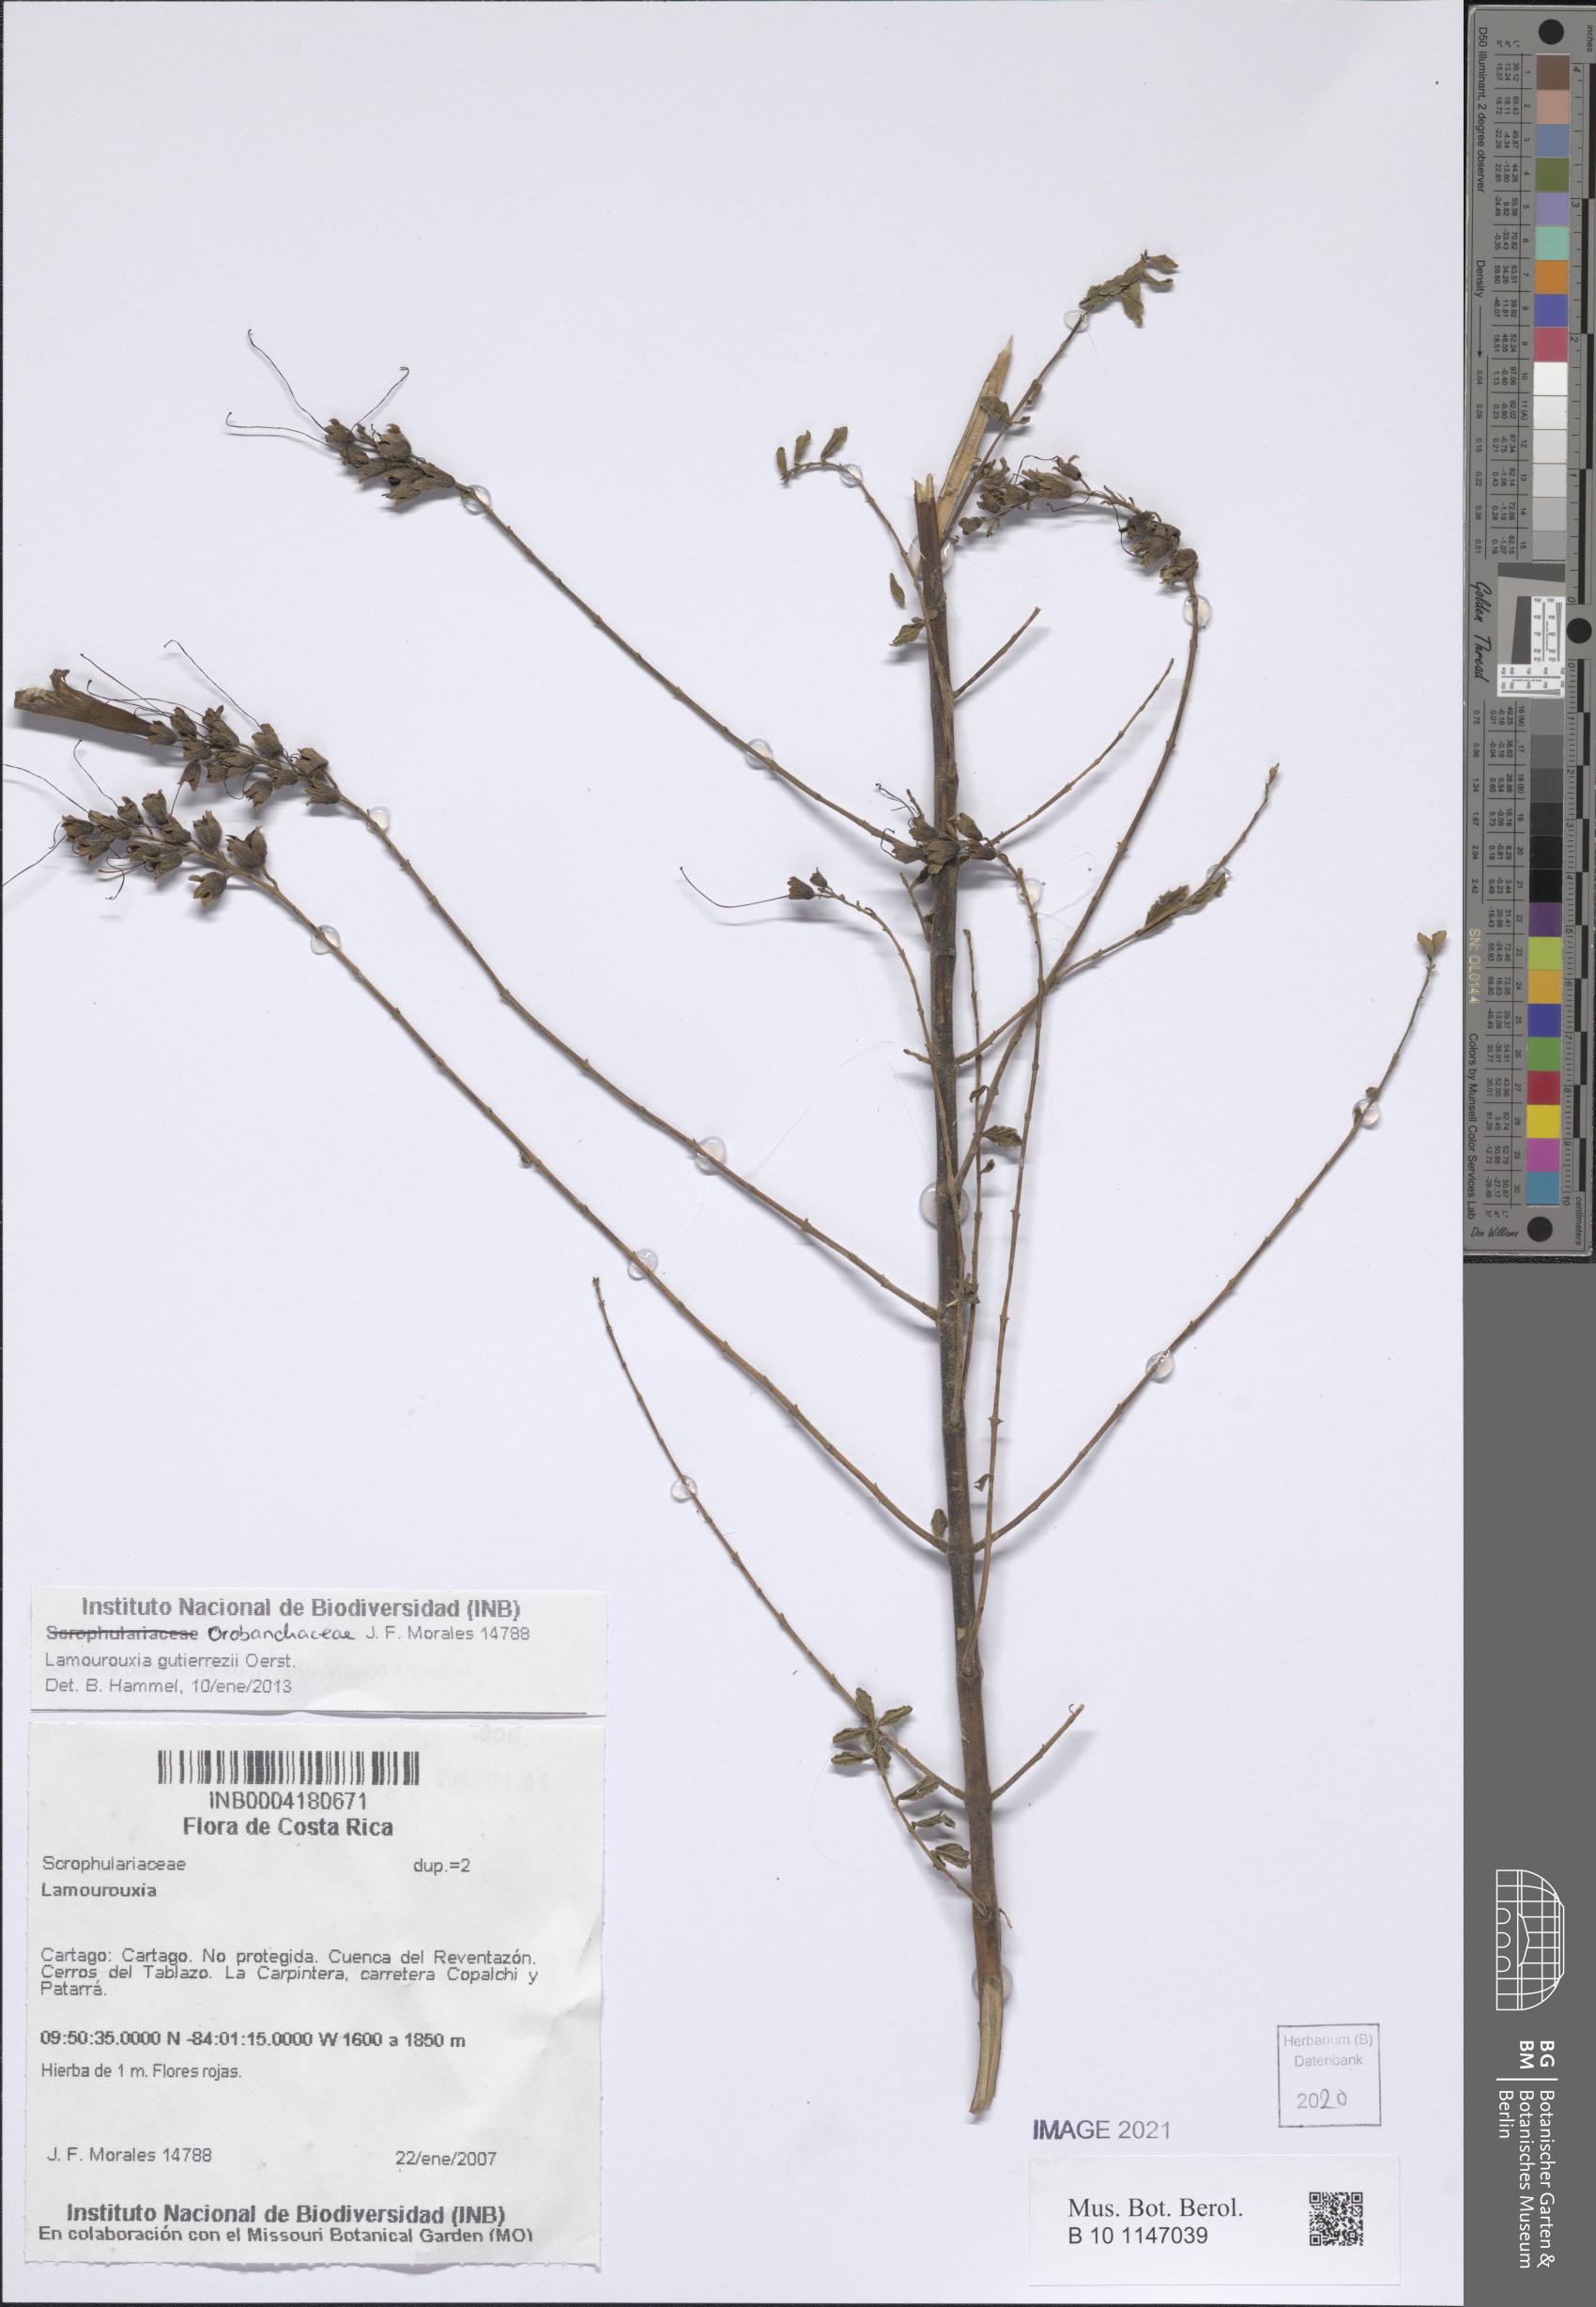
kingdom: Plantae
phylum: Tracheophyta
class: Magnoliopsida
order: Lamiales
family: Orobanchaceae
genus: Lamourouxia
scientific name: Lamourouxia gutierrezii
